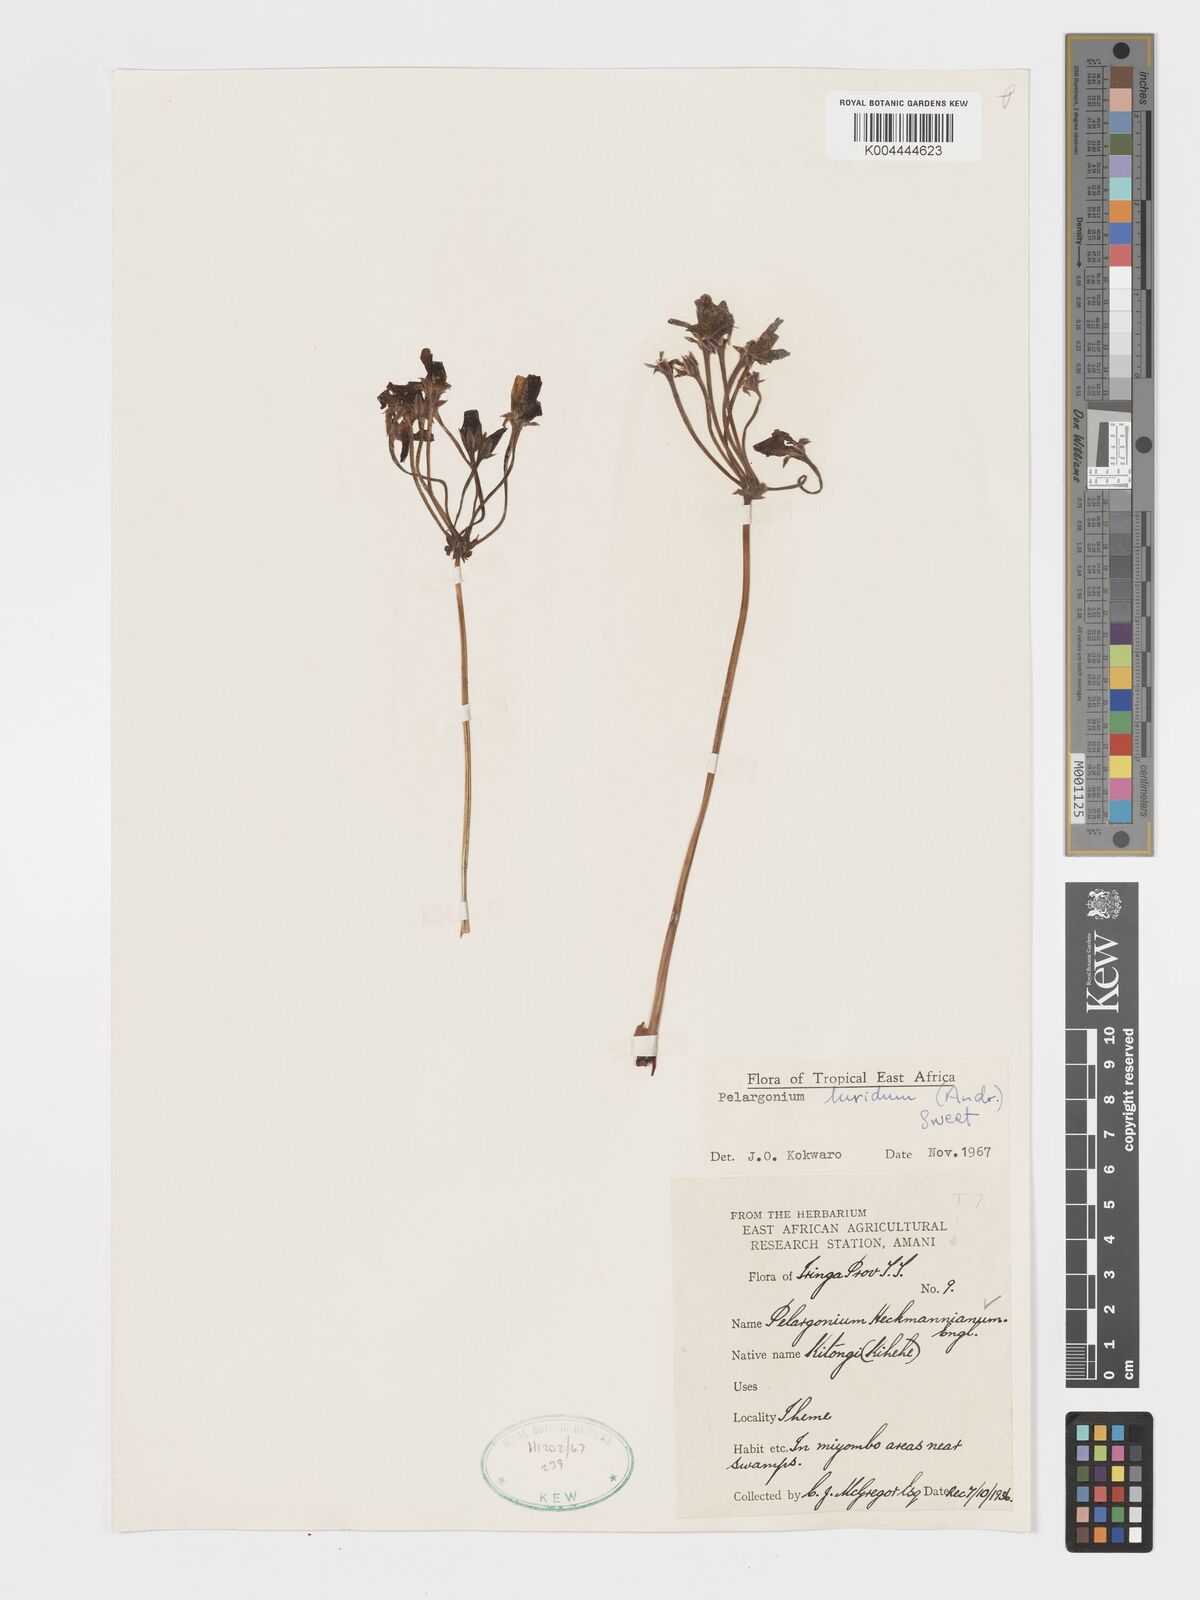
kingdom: Plantae
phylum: Tracheophyta
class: Magnoliopsida
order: Geraniales
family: Geraniaceae
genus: Pelargonium
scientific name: Pelargonium luridum
